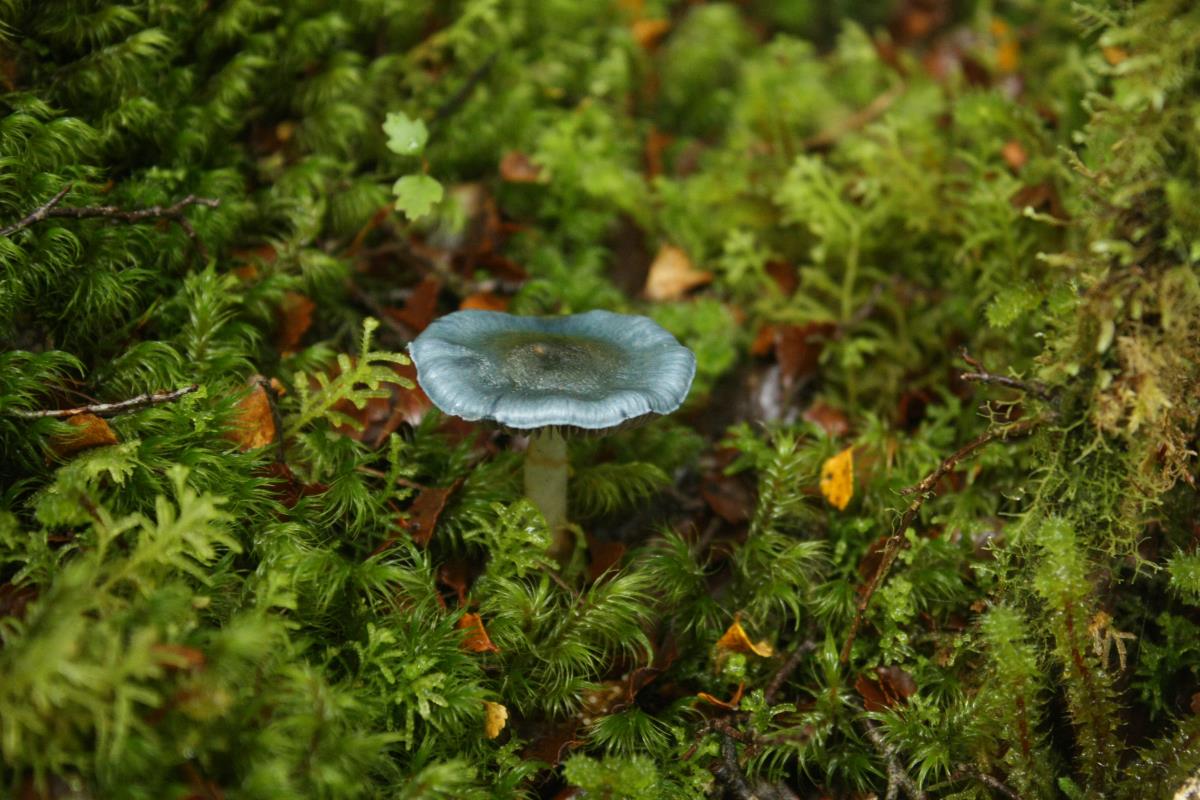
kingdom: Fungi
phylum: Basidiomycota
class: Agaricomycetes
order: Agaricales
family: Cortinariaceae
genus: Cortinarius
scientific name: Cortinarius tessiae
